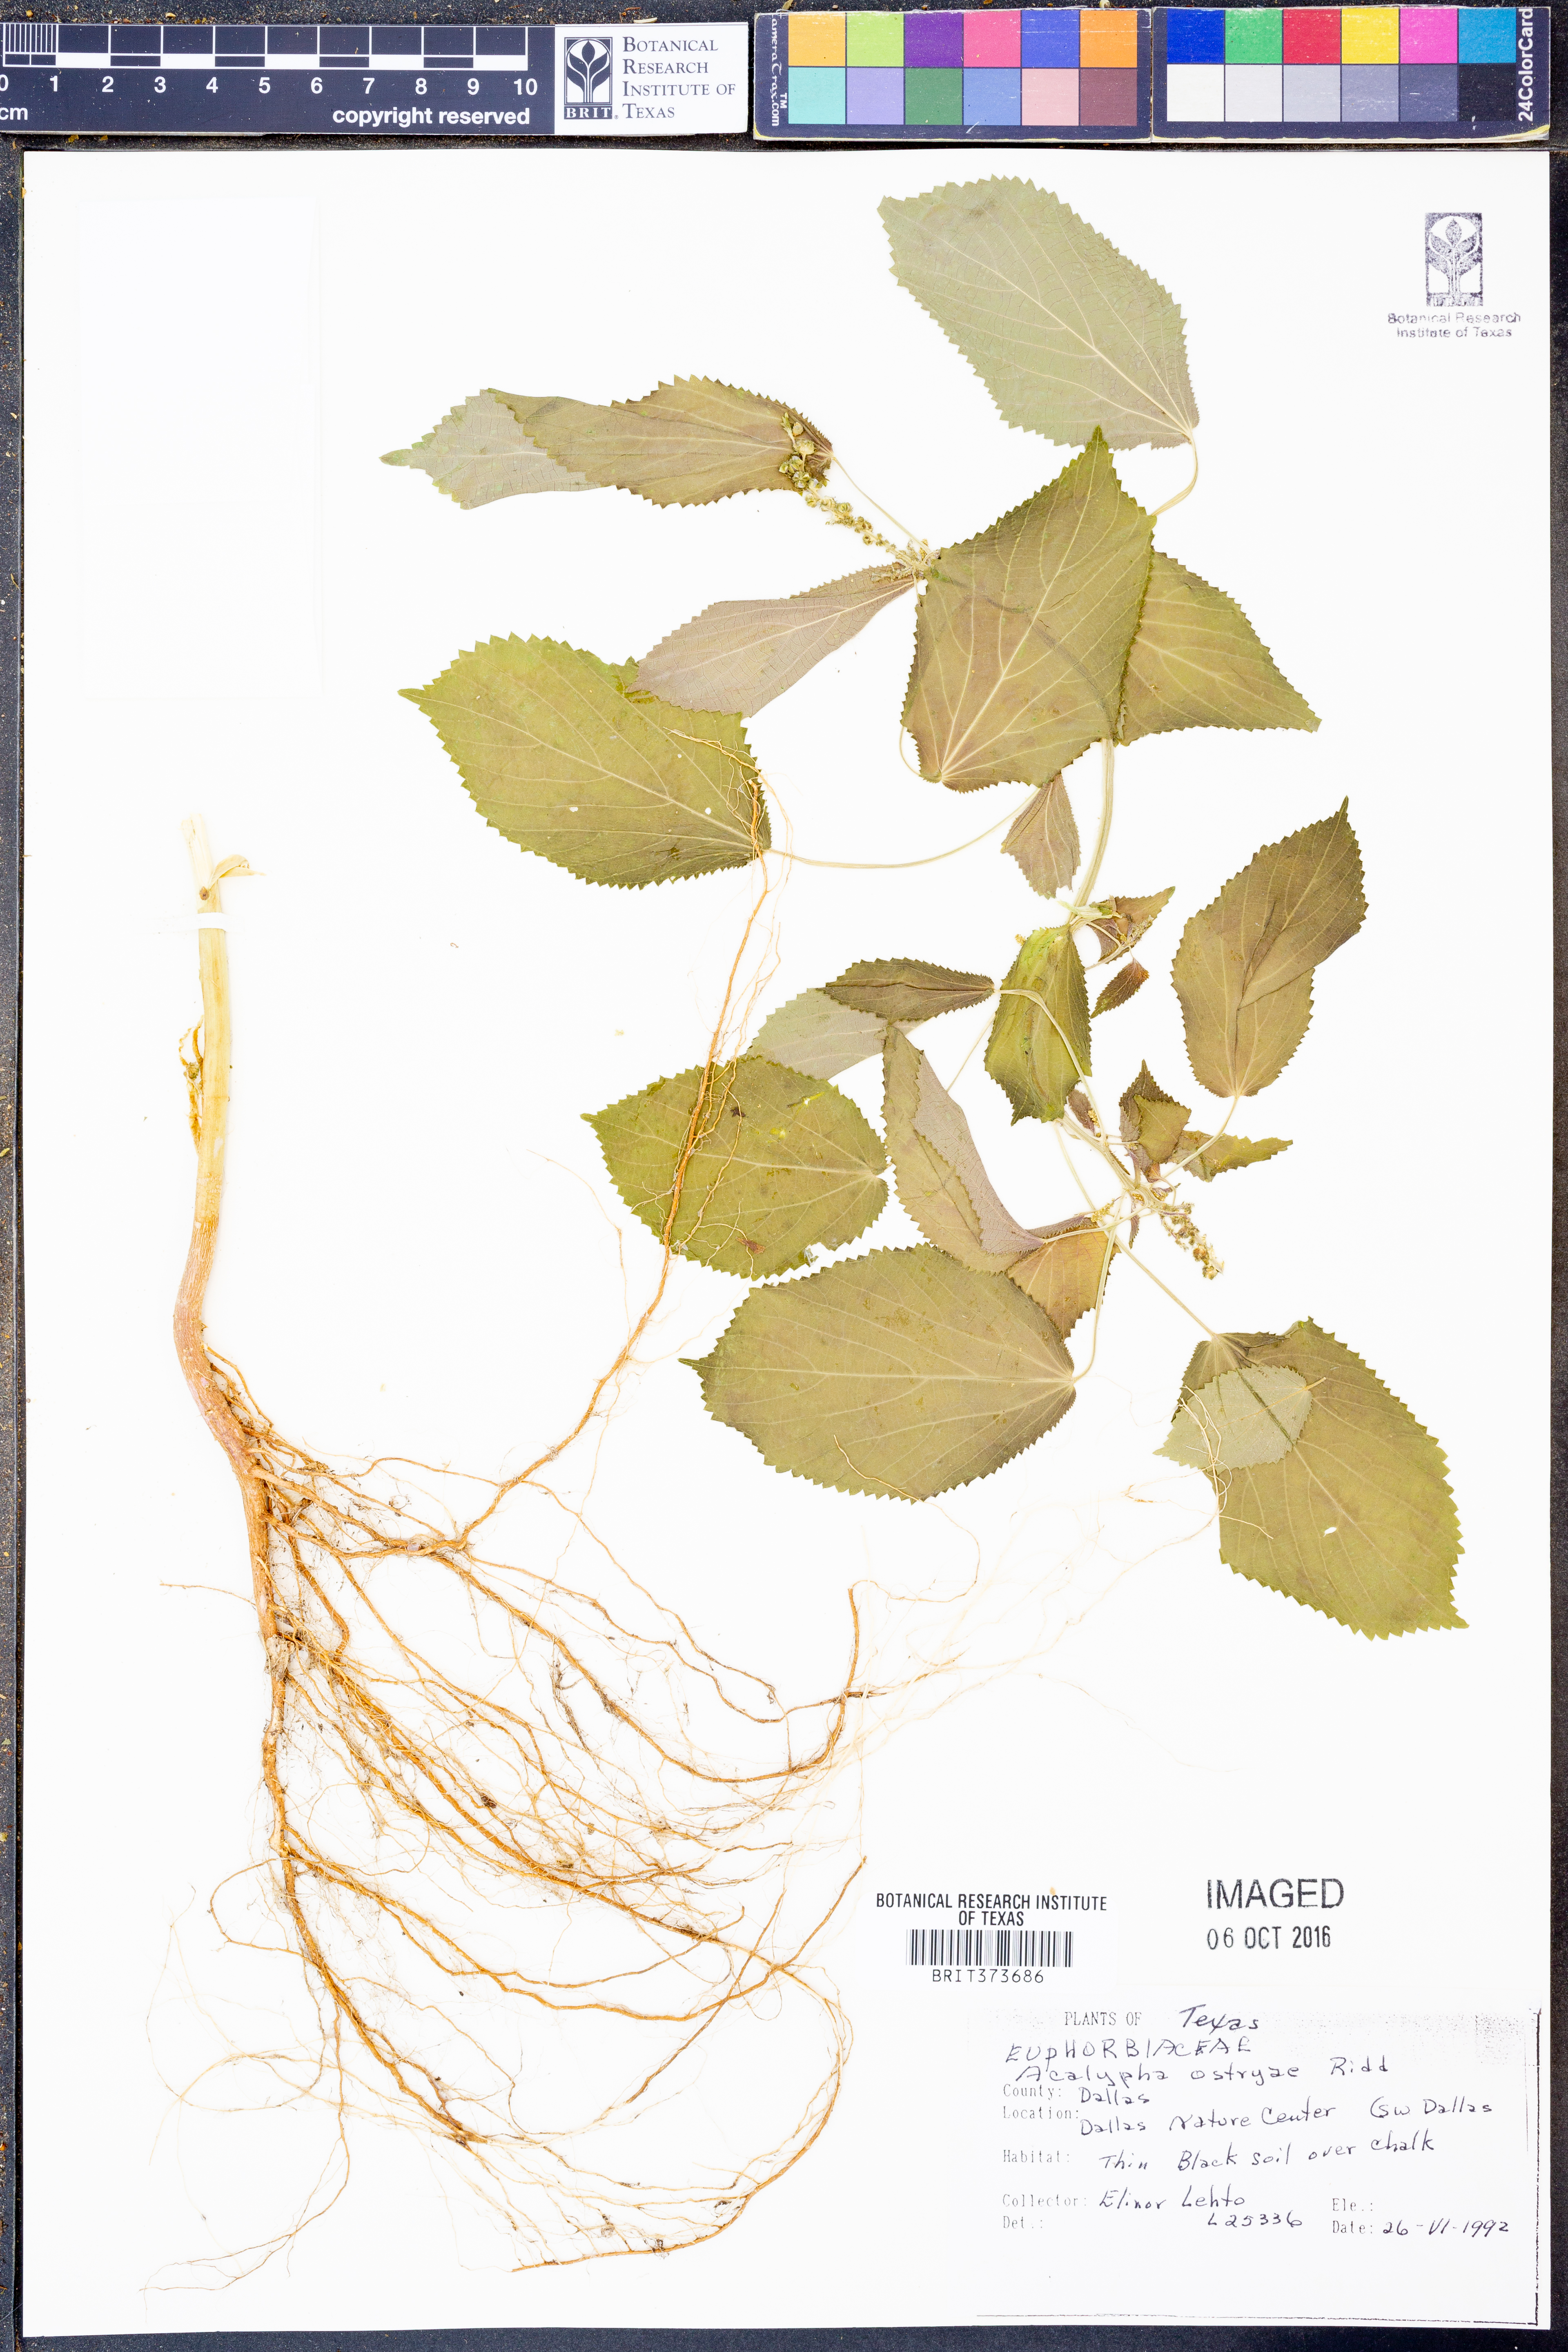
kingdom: Plantae
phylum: Tracheophyta
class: Magnoliopsida
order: Malpighiales
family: Euphorbiaceae
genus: Acalypha
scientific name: Acalypha ostryifolia
